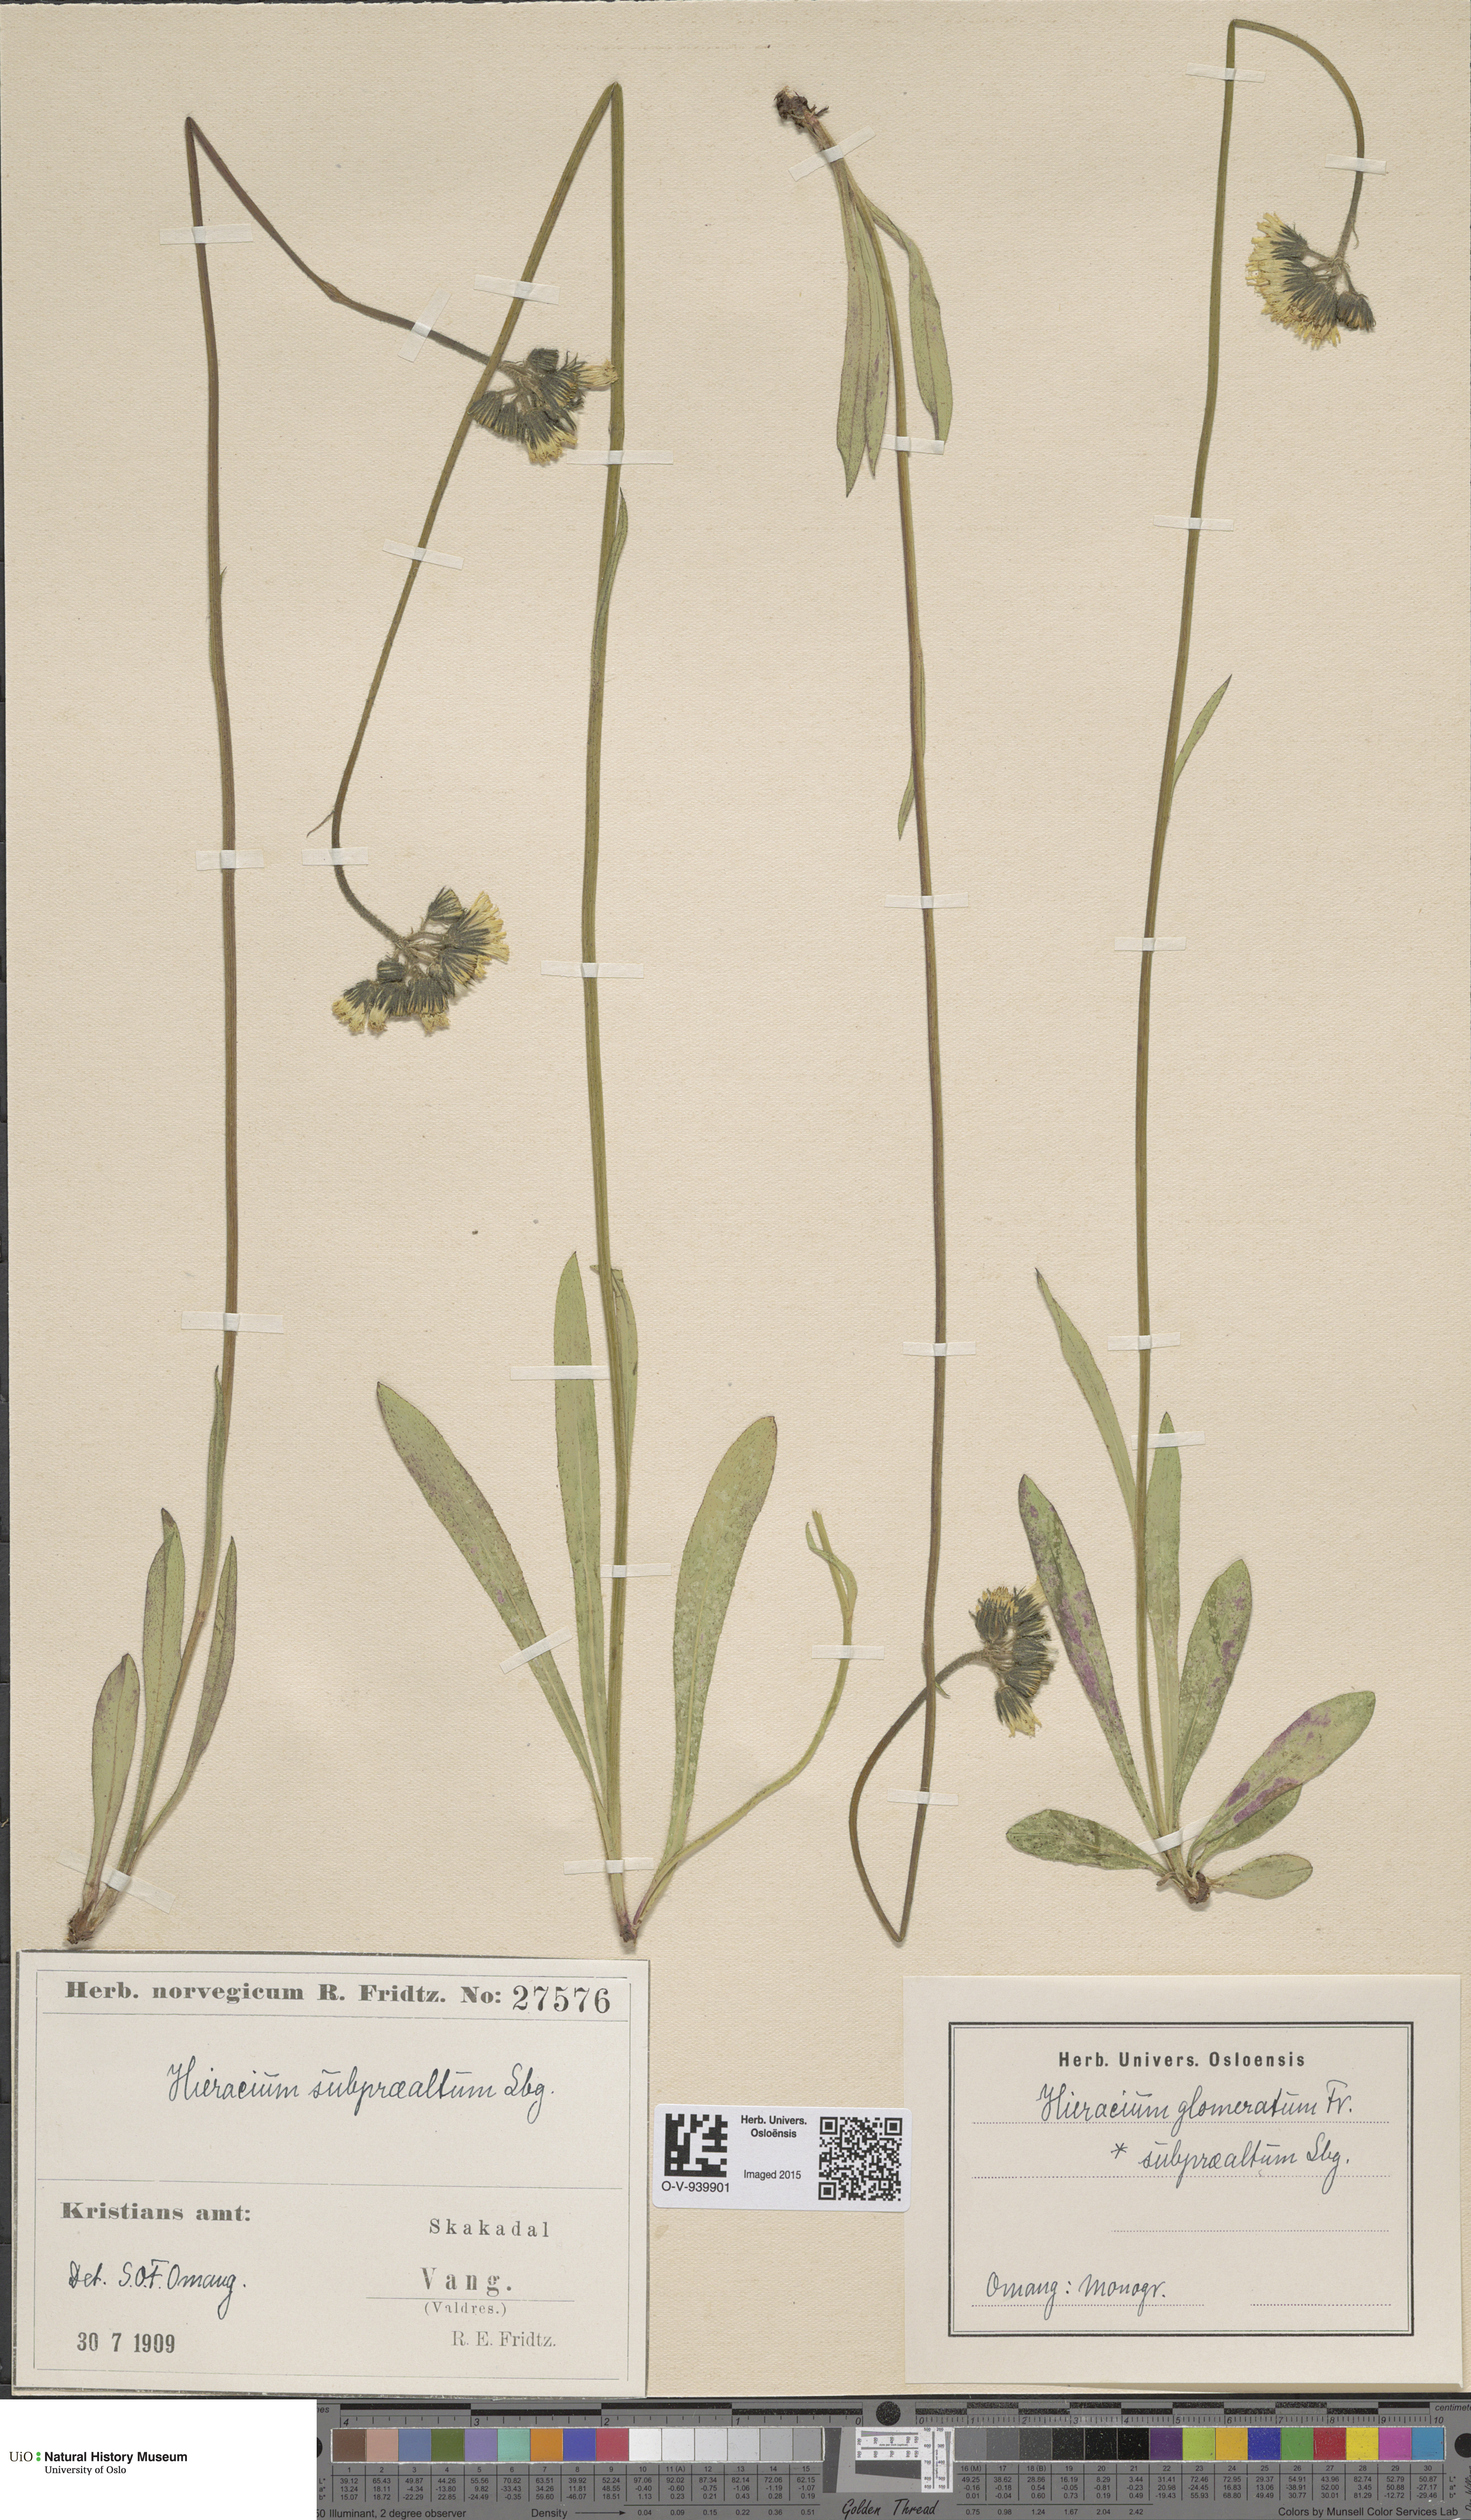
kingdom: Plantae
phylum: Tracheophyta
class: Magnoliopsida
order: Asterales
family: Asteraceae
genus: Pilosella
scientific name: Pilosella glomerata
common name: Queen devil hawkweed
